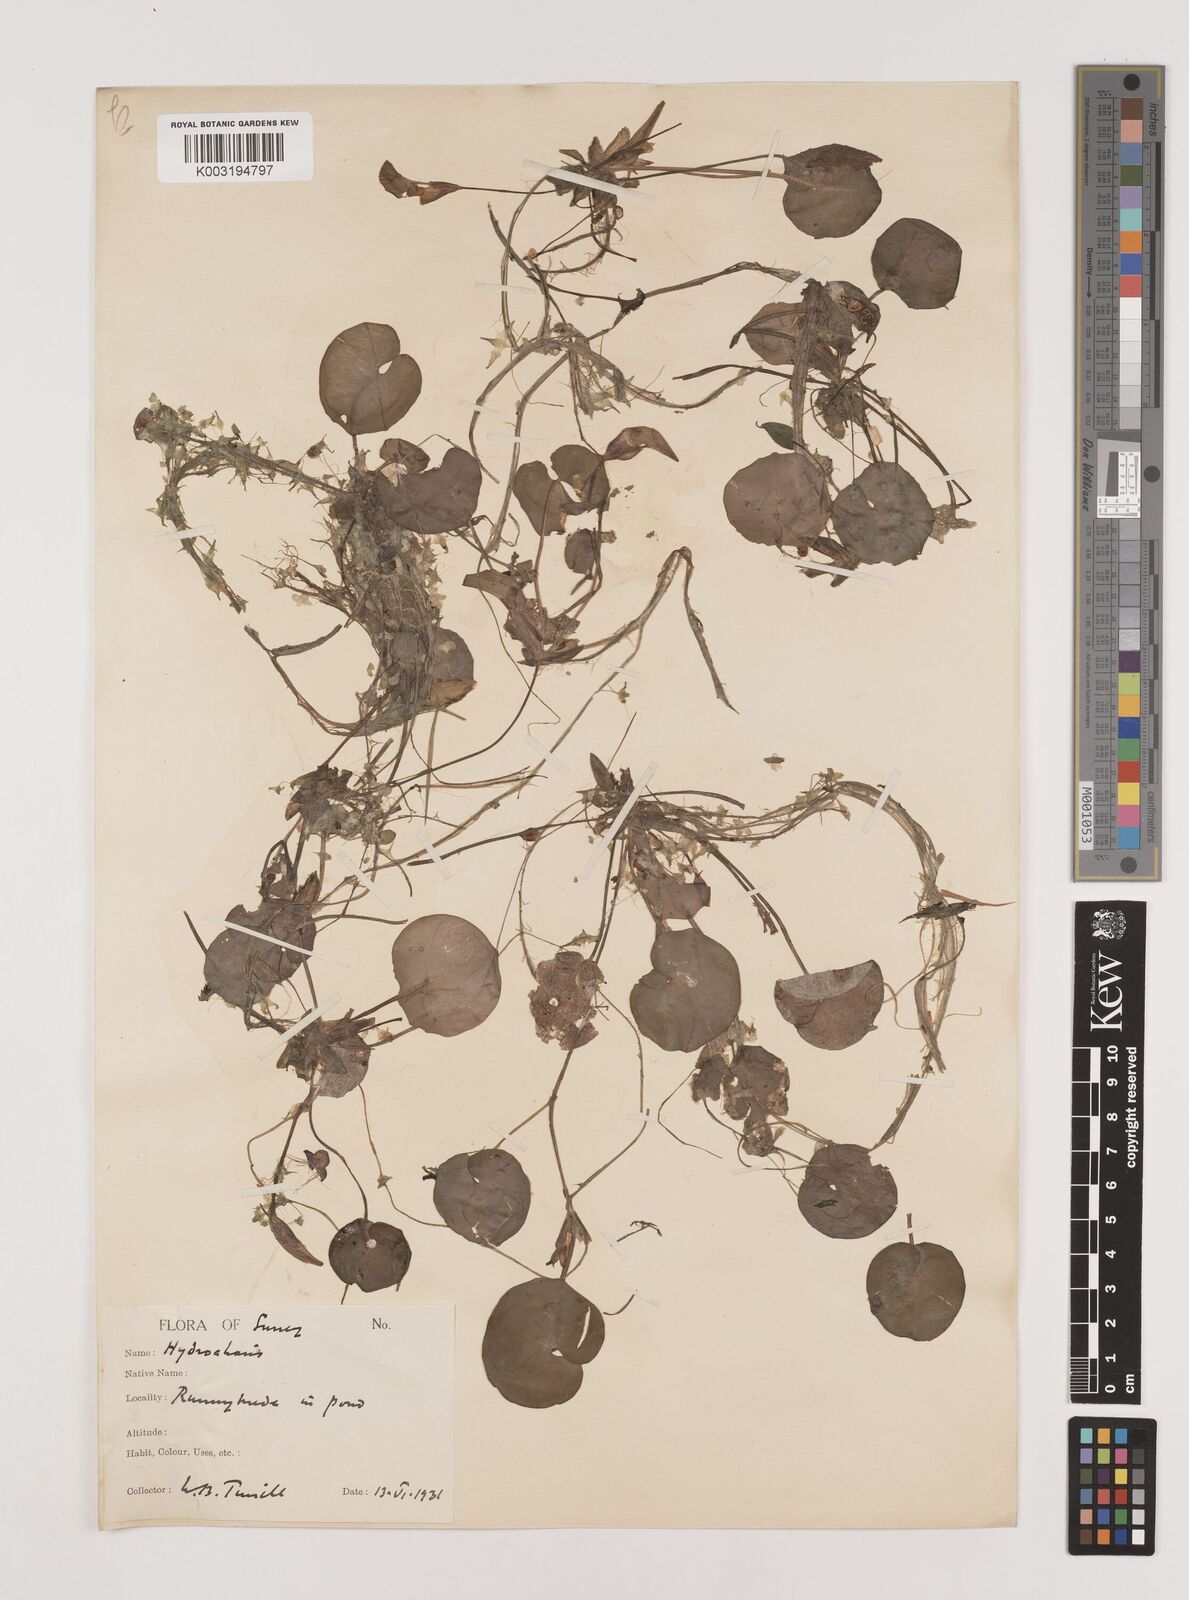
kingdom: Plantae
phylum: Tracheophyta
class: Liliopsida
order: Alismatales
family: Hydrocharitaceae
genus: Hydrocharis
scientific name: Hydrocharis morsus-ranae
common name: Frogbit
